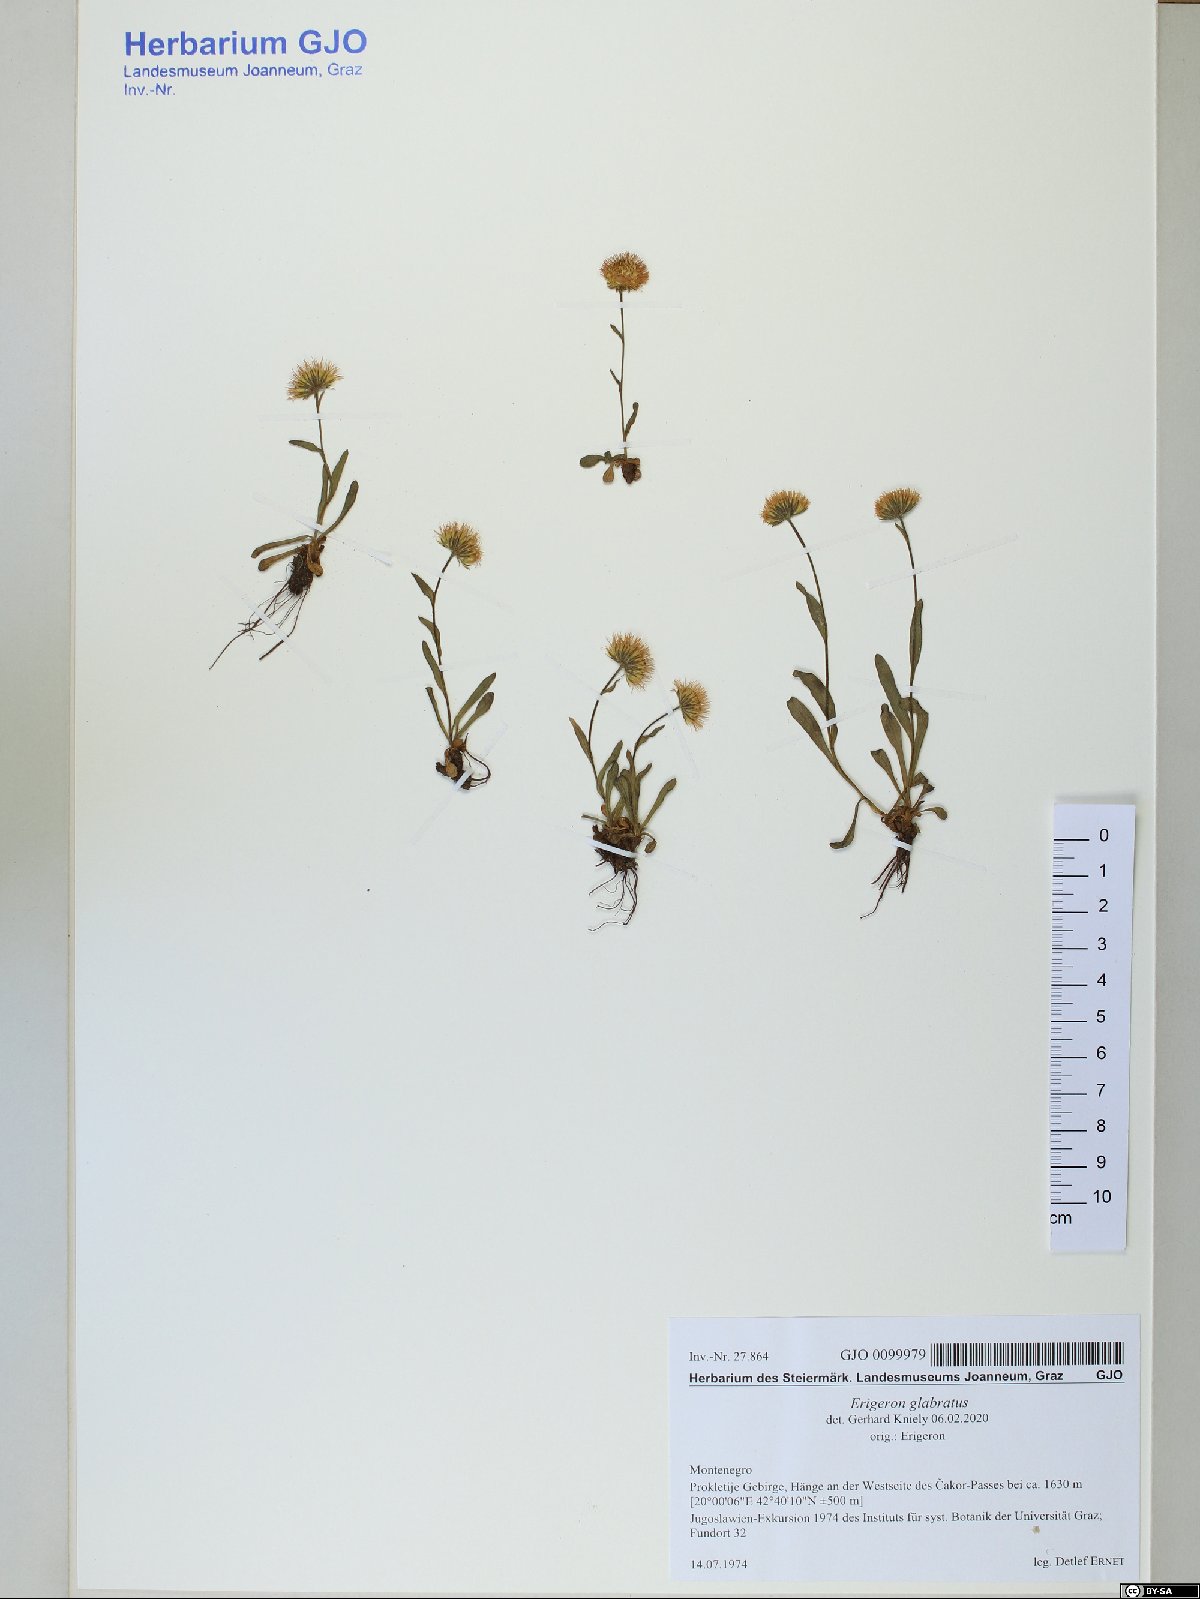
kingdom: Plantae
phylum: Tracheophyta
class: Magnoliopsida
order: Asterales
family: Asteraceae
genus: Erigeron
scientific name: Erigeron glabratus
